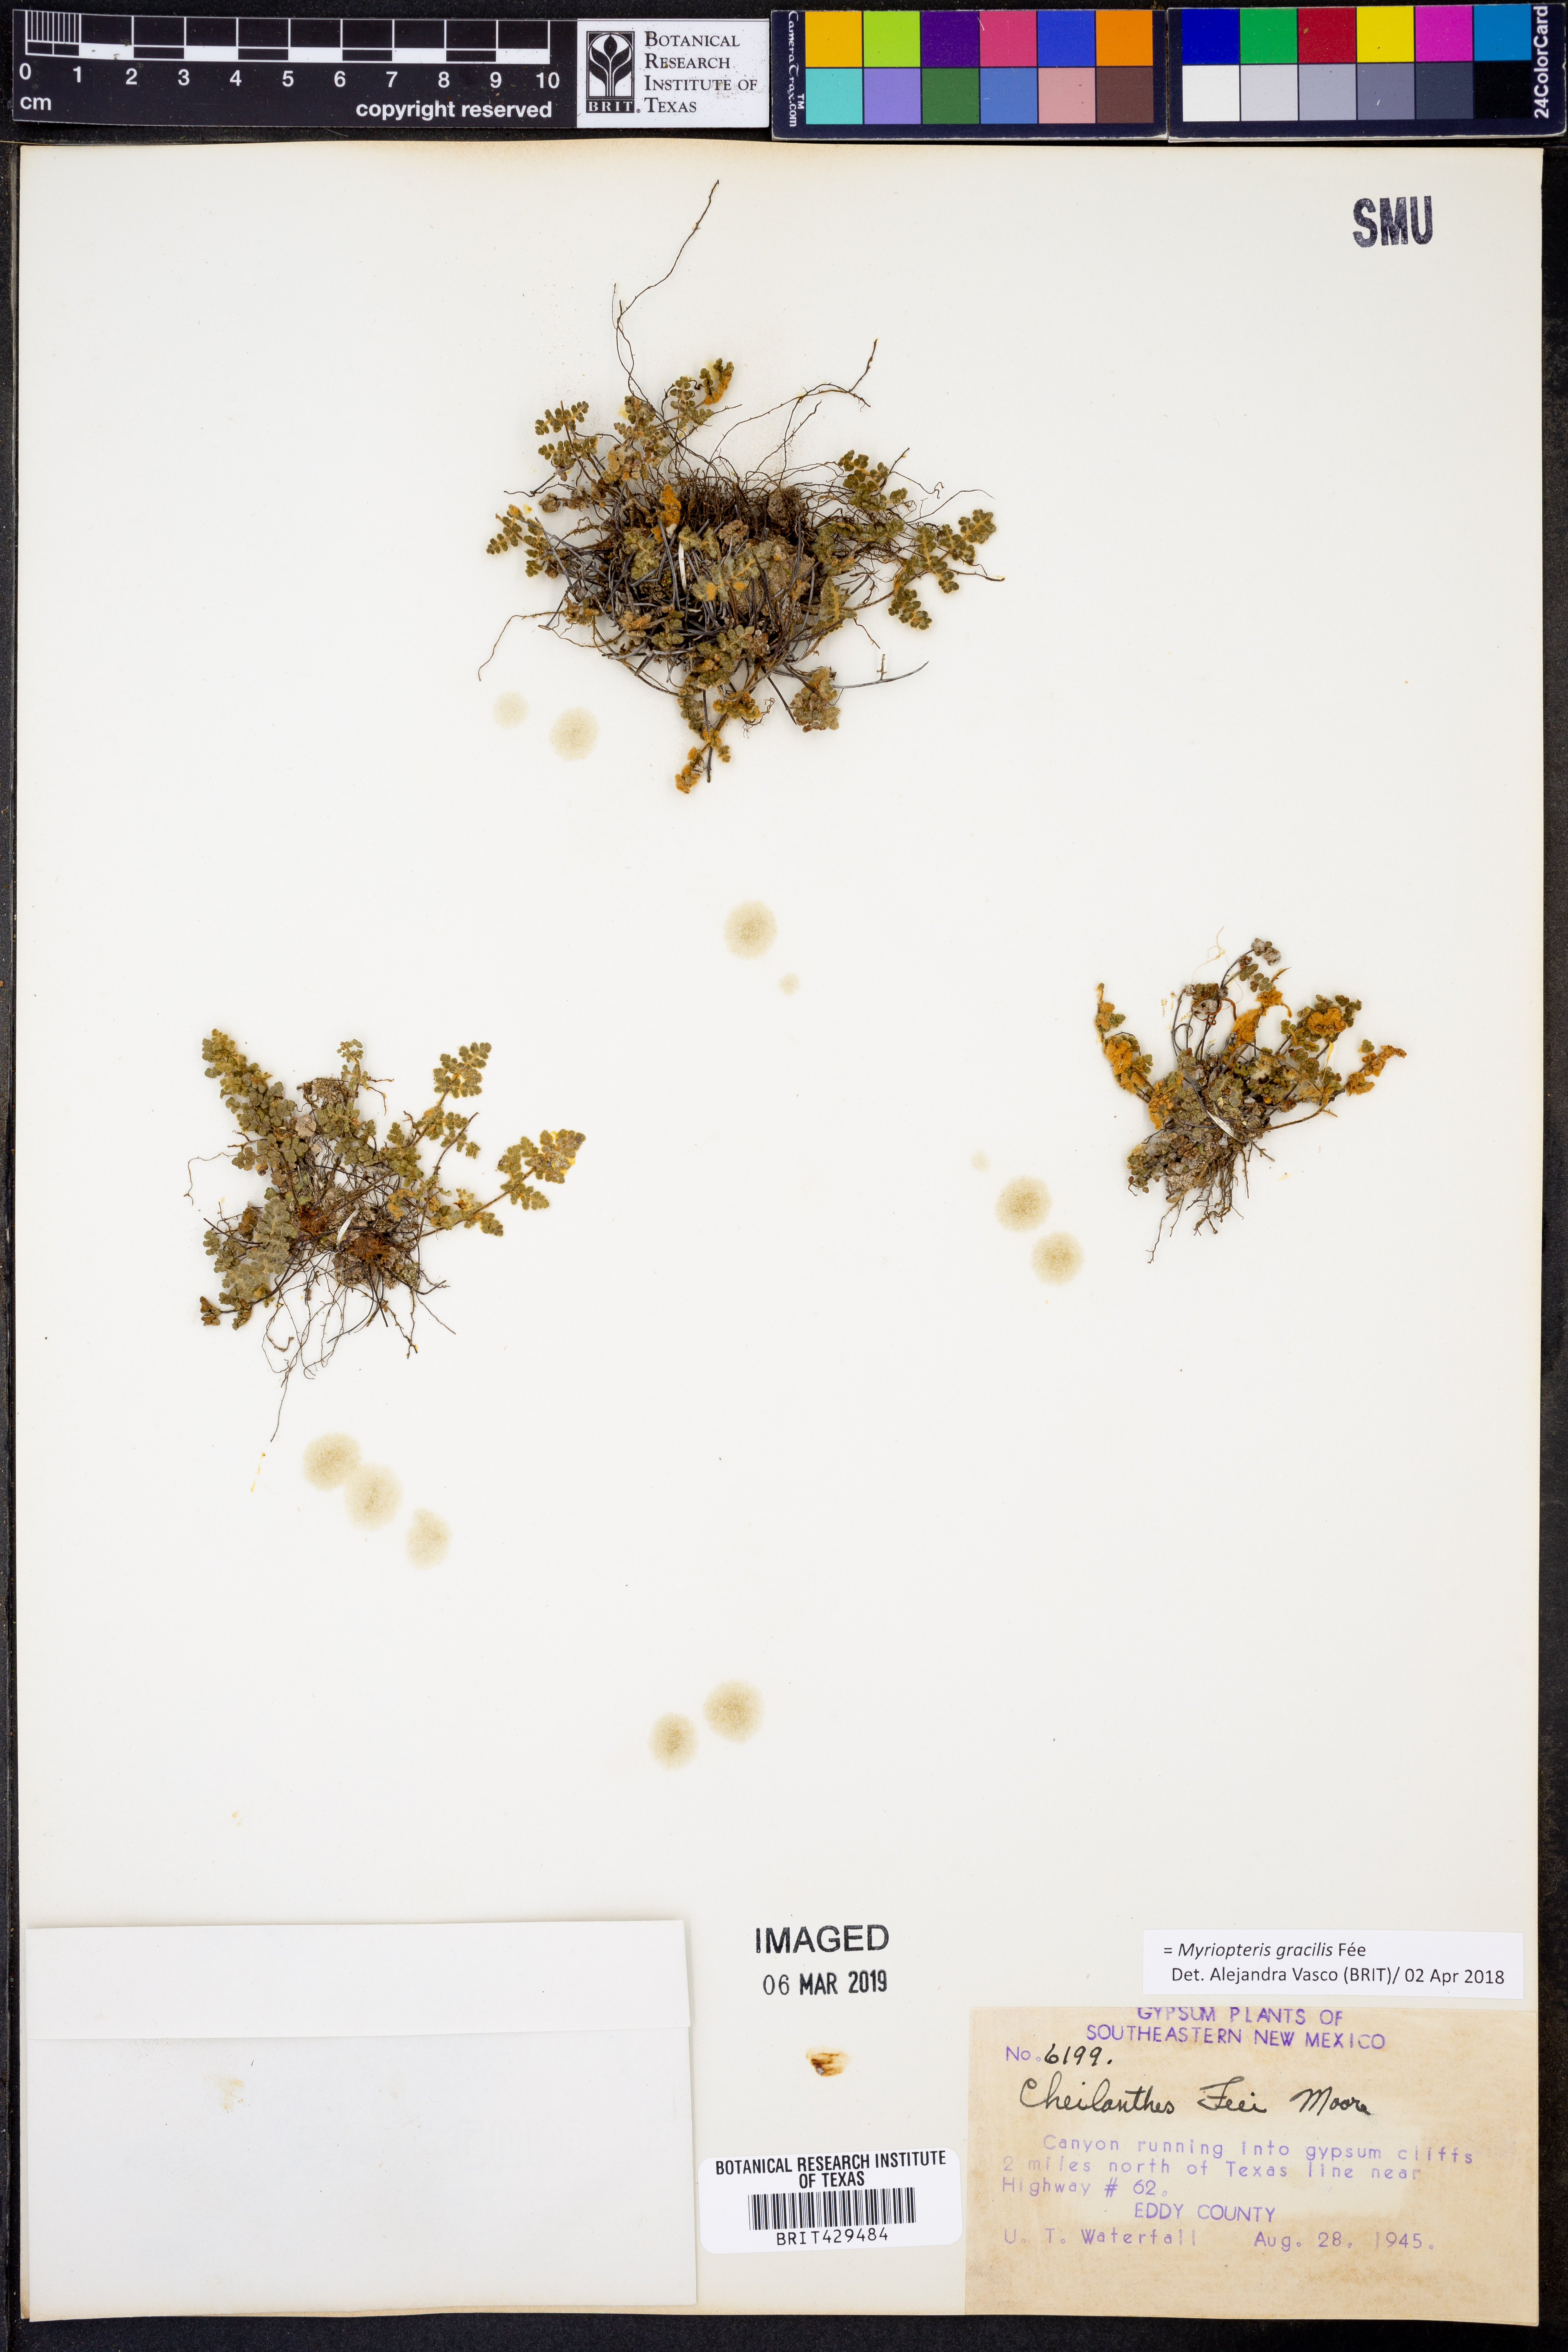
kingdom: Plantae
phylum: Tracheophyta
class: Polypodiopsida
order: Polypodiales
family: Pteridaceae
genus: Myriopteris
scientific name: Myriopteris gracilis
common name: Fee's lip fern
